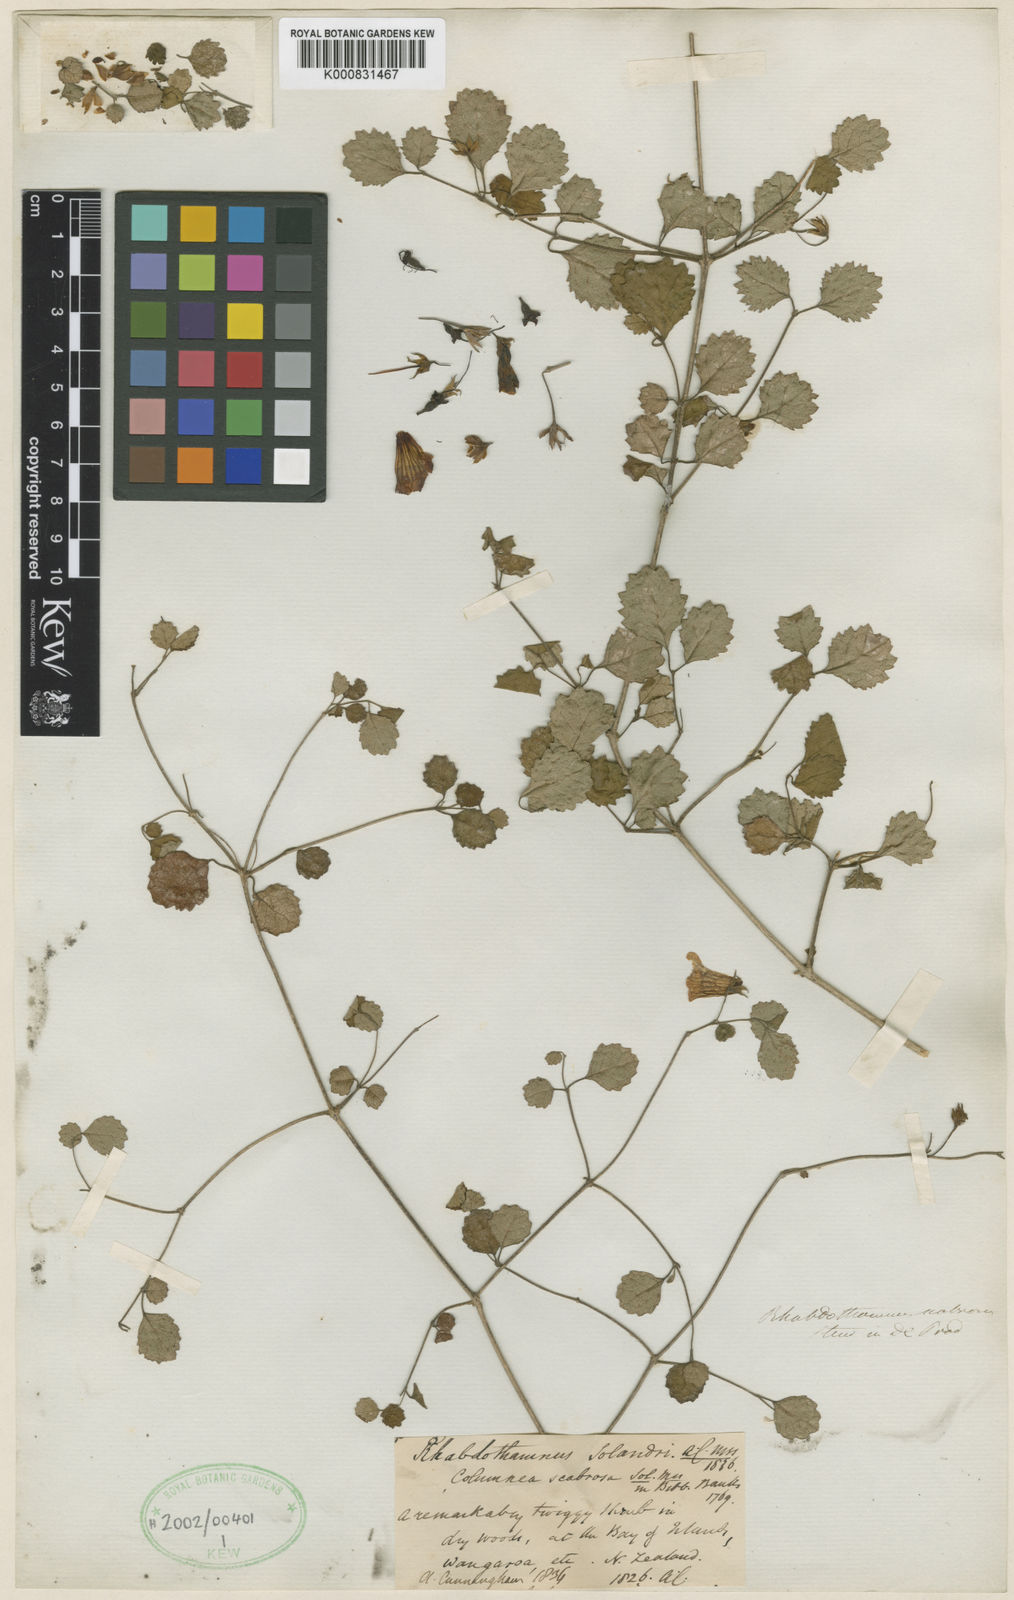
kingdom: Plantae
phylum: Tracheophyta
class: Magnoliopsida
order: Lamiales
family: Gesneriaceae
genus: Rhabdothamnus
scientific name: Rhabdothamnus solandri
